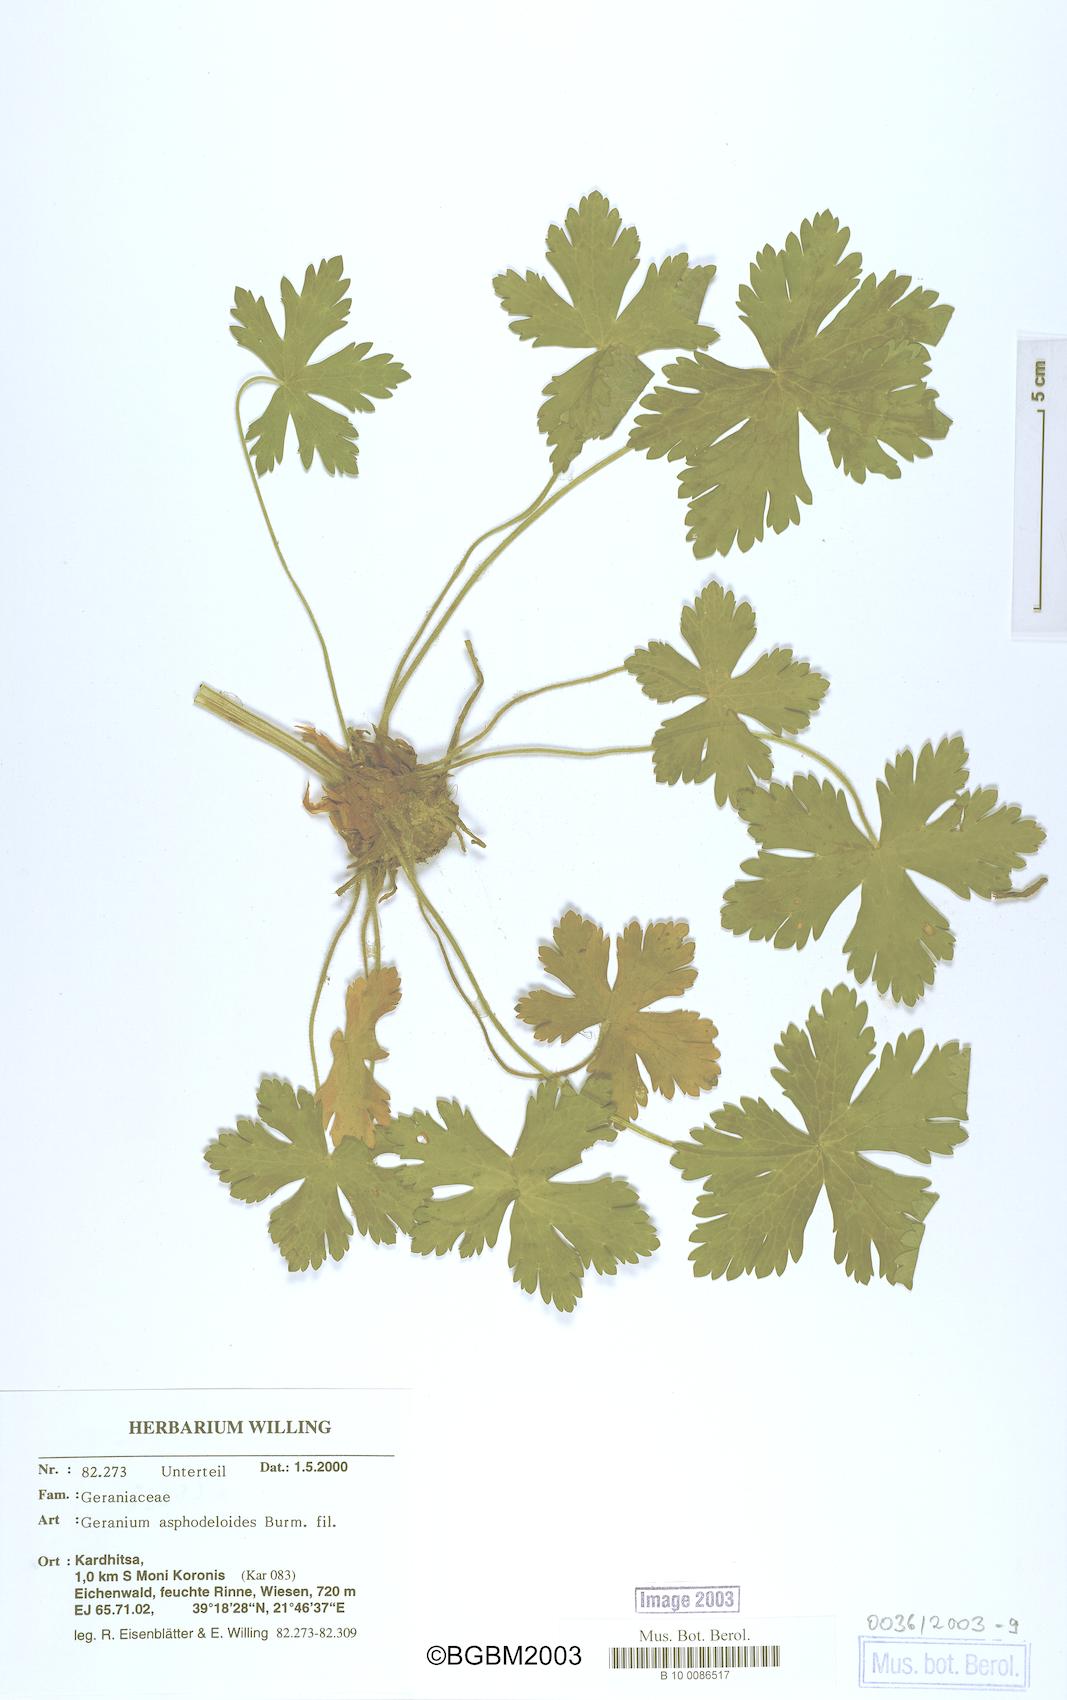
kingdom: Plantae
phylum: Tracheophyta
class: Magnoliopsida
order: Geraniales
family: Geraniaceae
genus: Geranium
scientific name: Geranium asphodeloides
